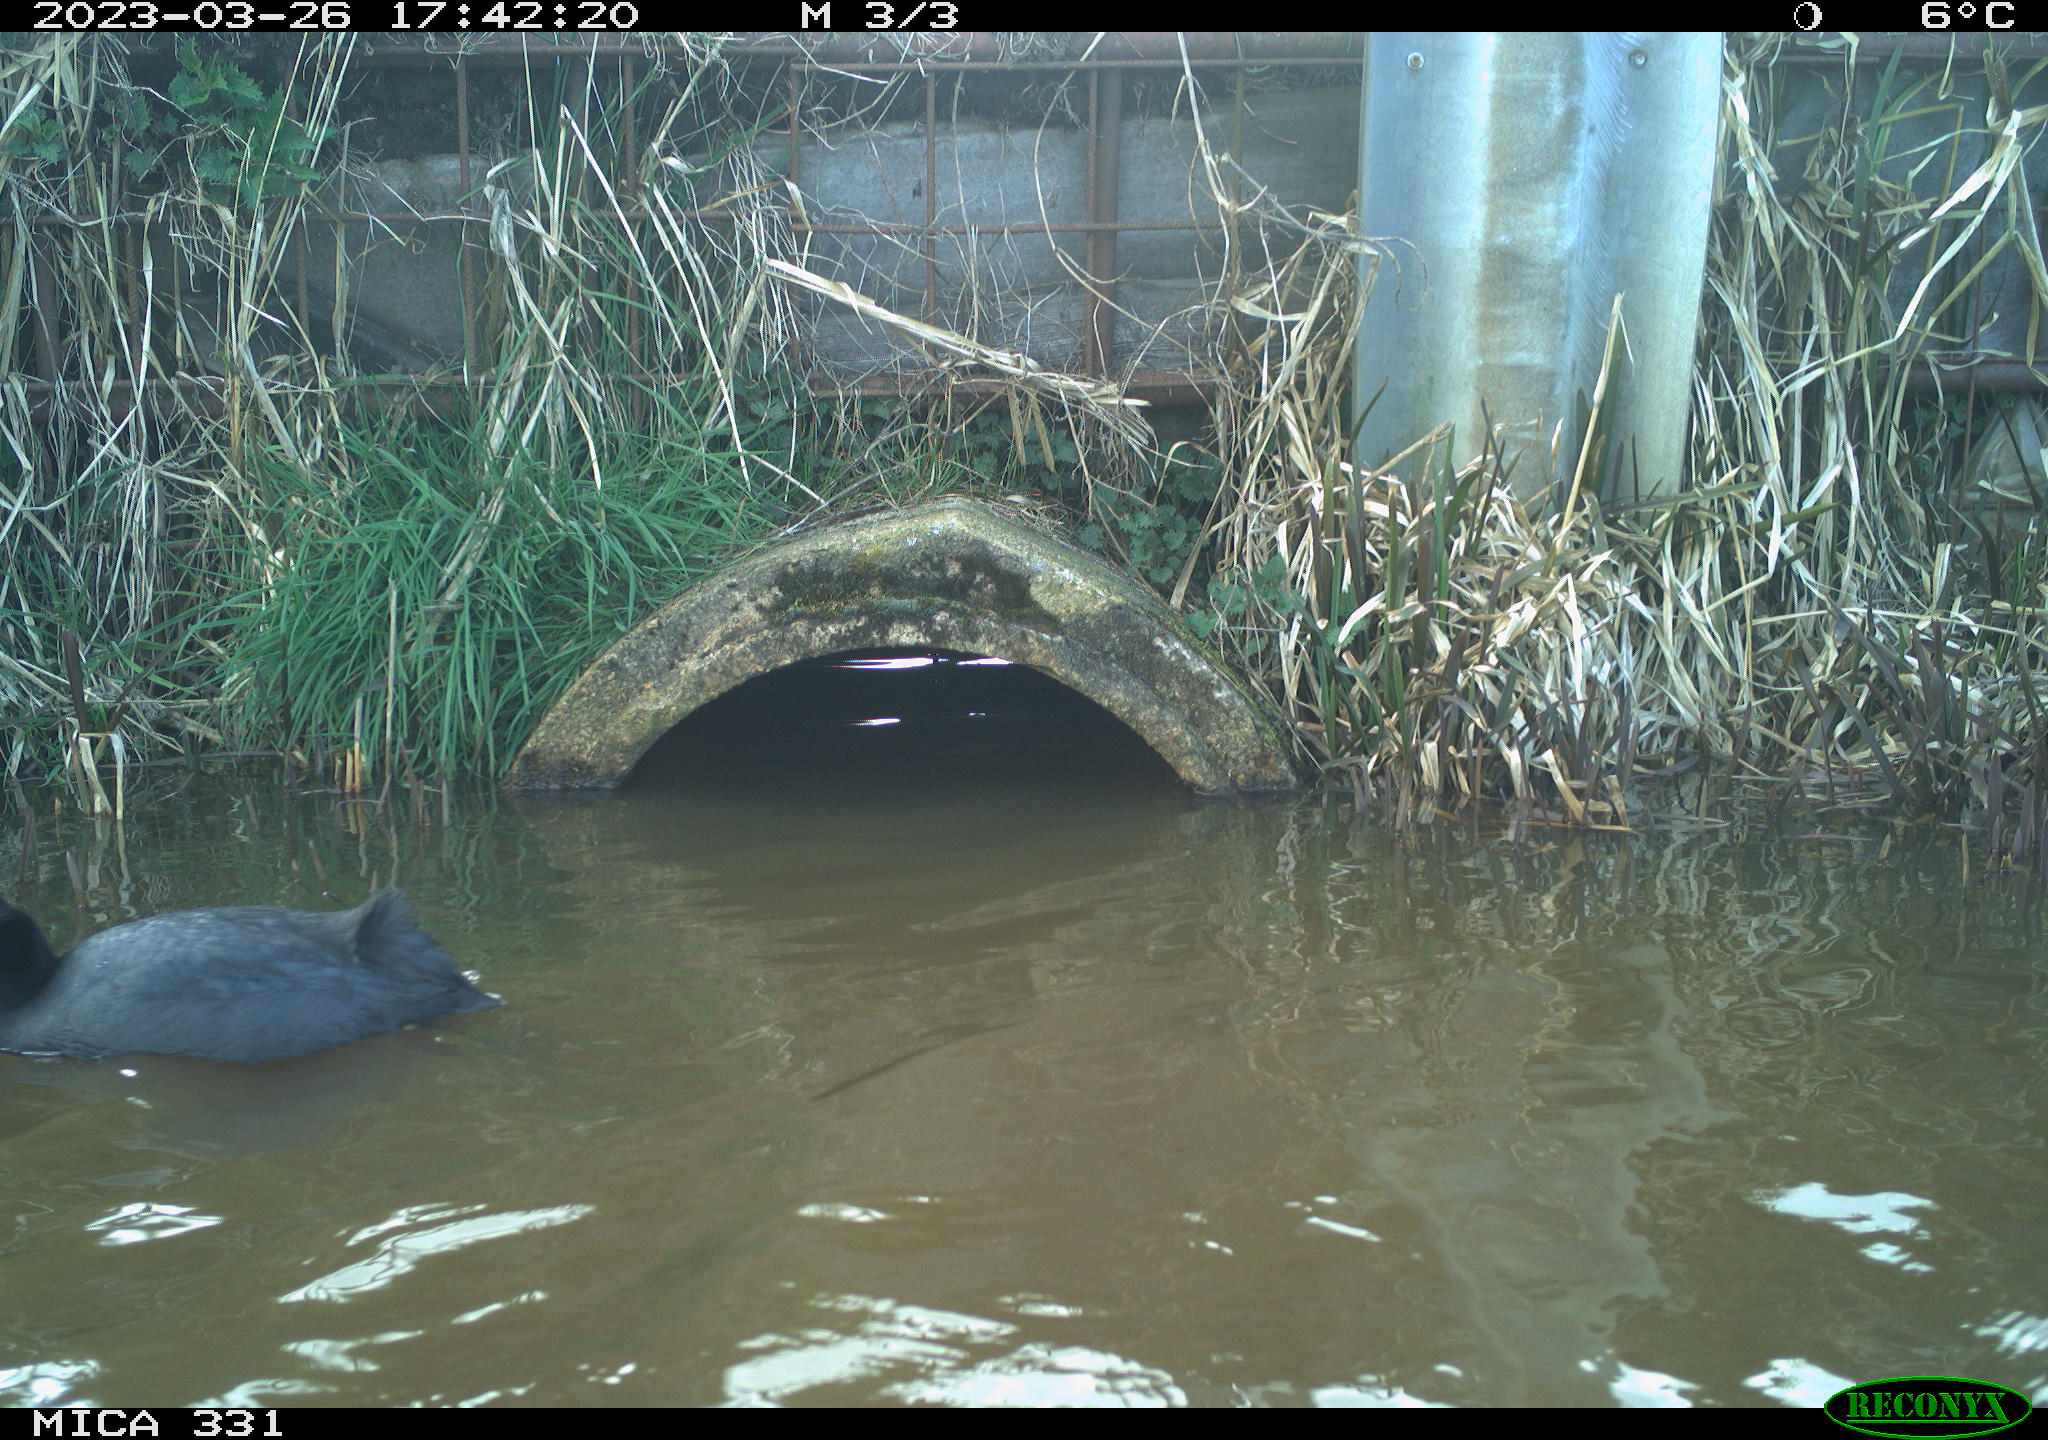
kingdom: Animalia
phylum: Chordata
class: Aves
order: Gruiformes
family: Rallidae
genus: Fulica
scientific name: Fulica atra
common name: Eurasian coot
